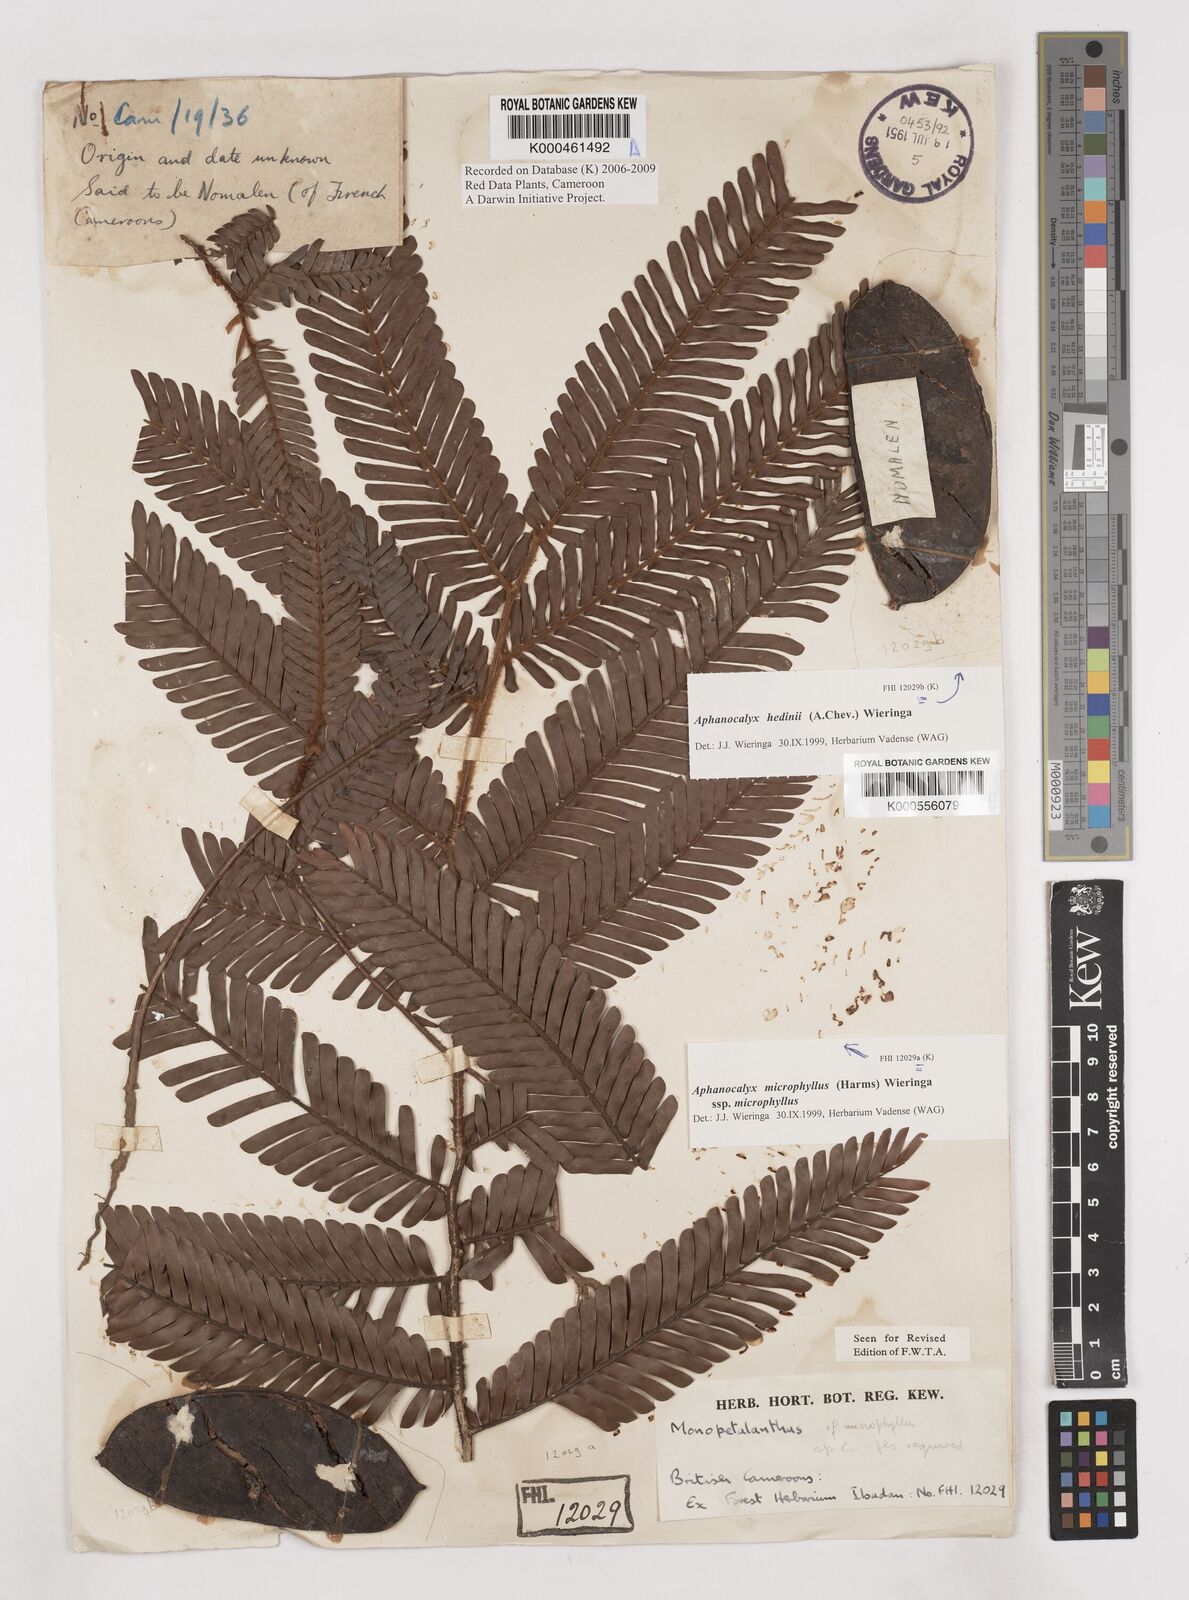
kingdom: Plantae
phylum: Tracheophyta
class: Magnoliopsida
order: Fabales
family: Fabaceae
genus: Aphanocalyx
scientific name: Aphanocalyx hedinii
